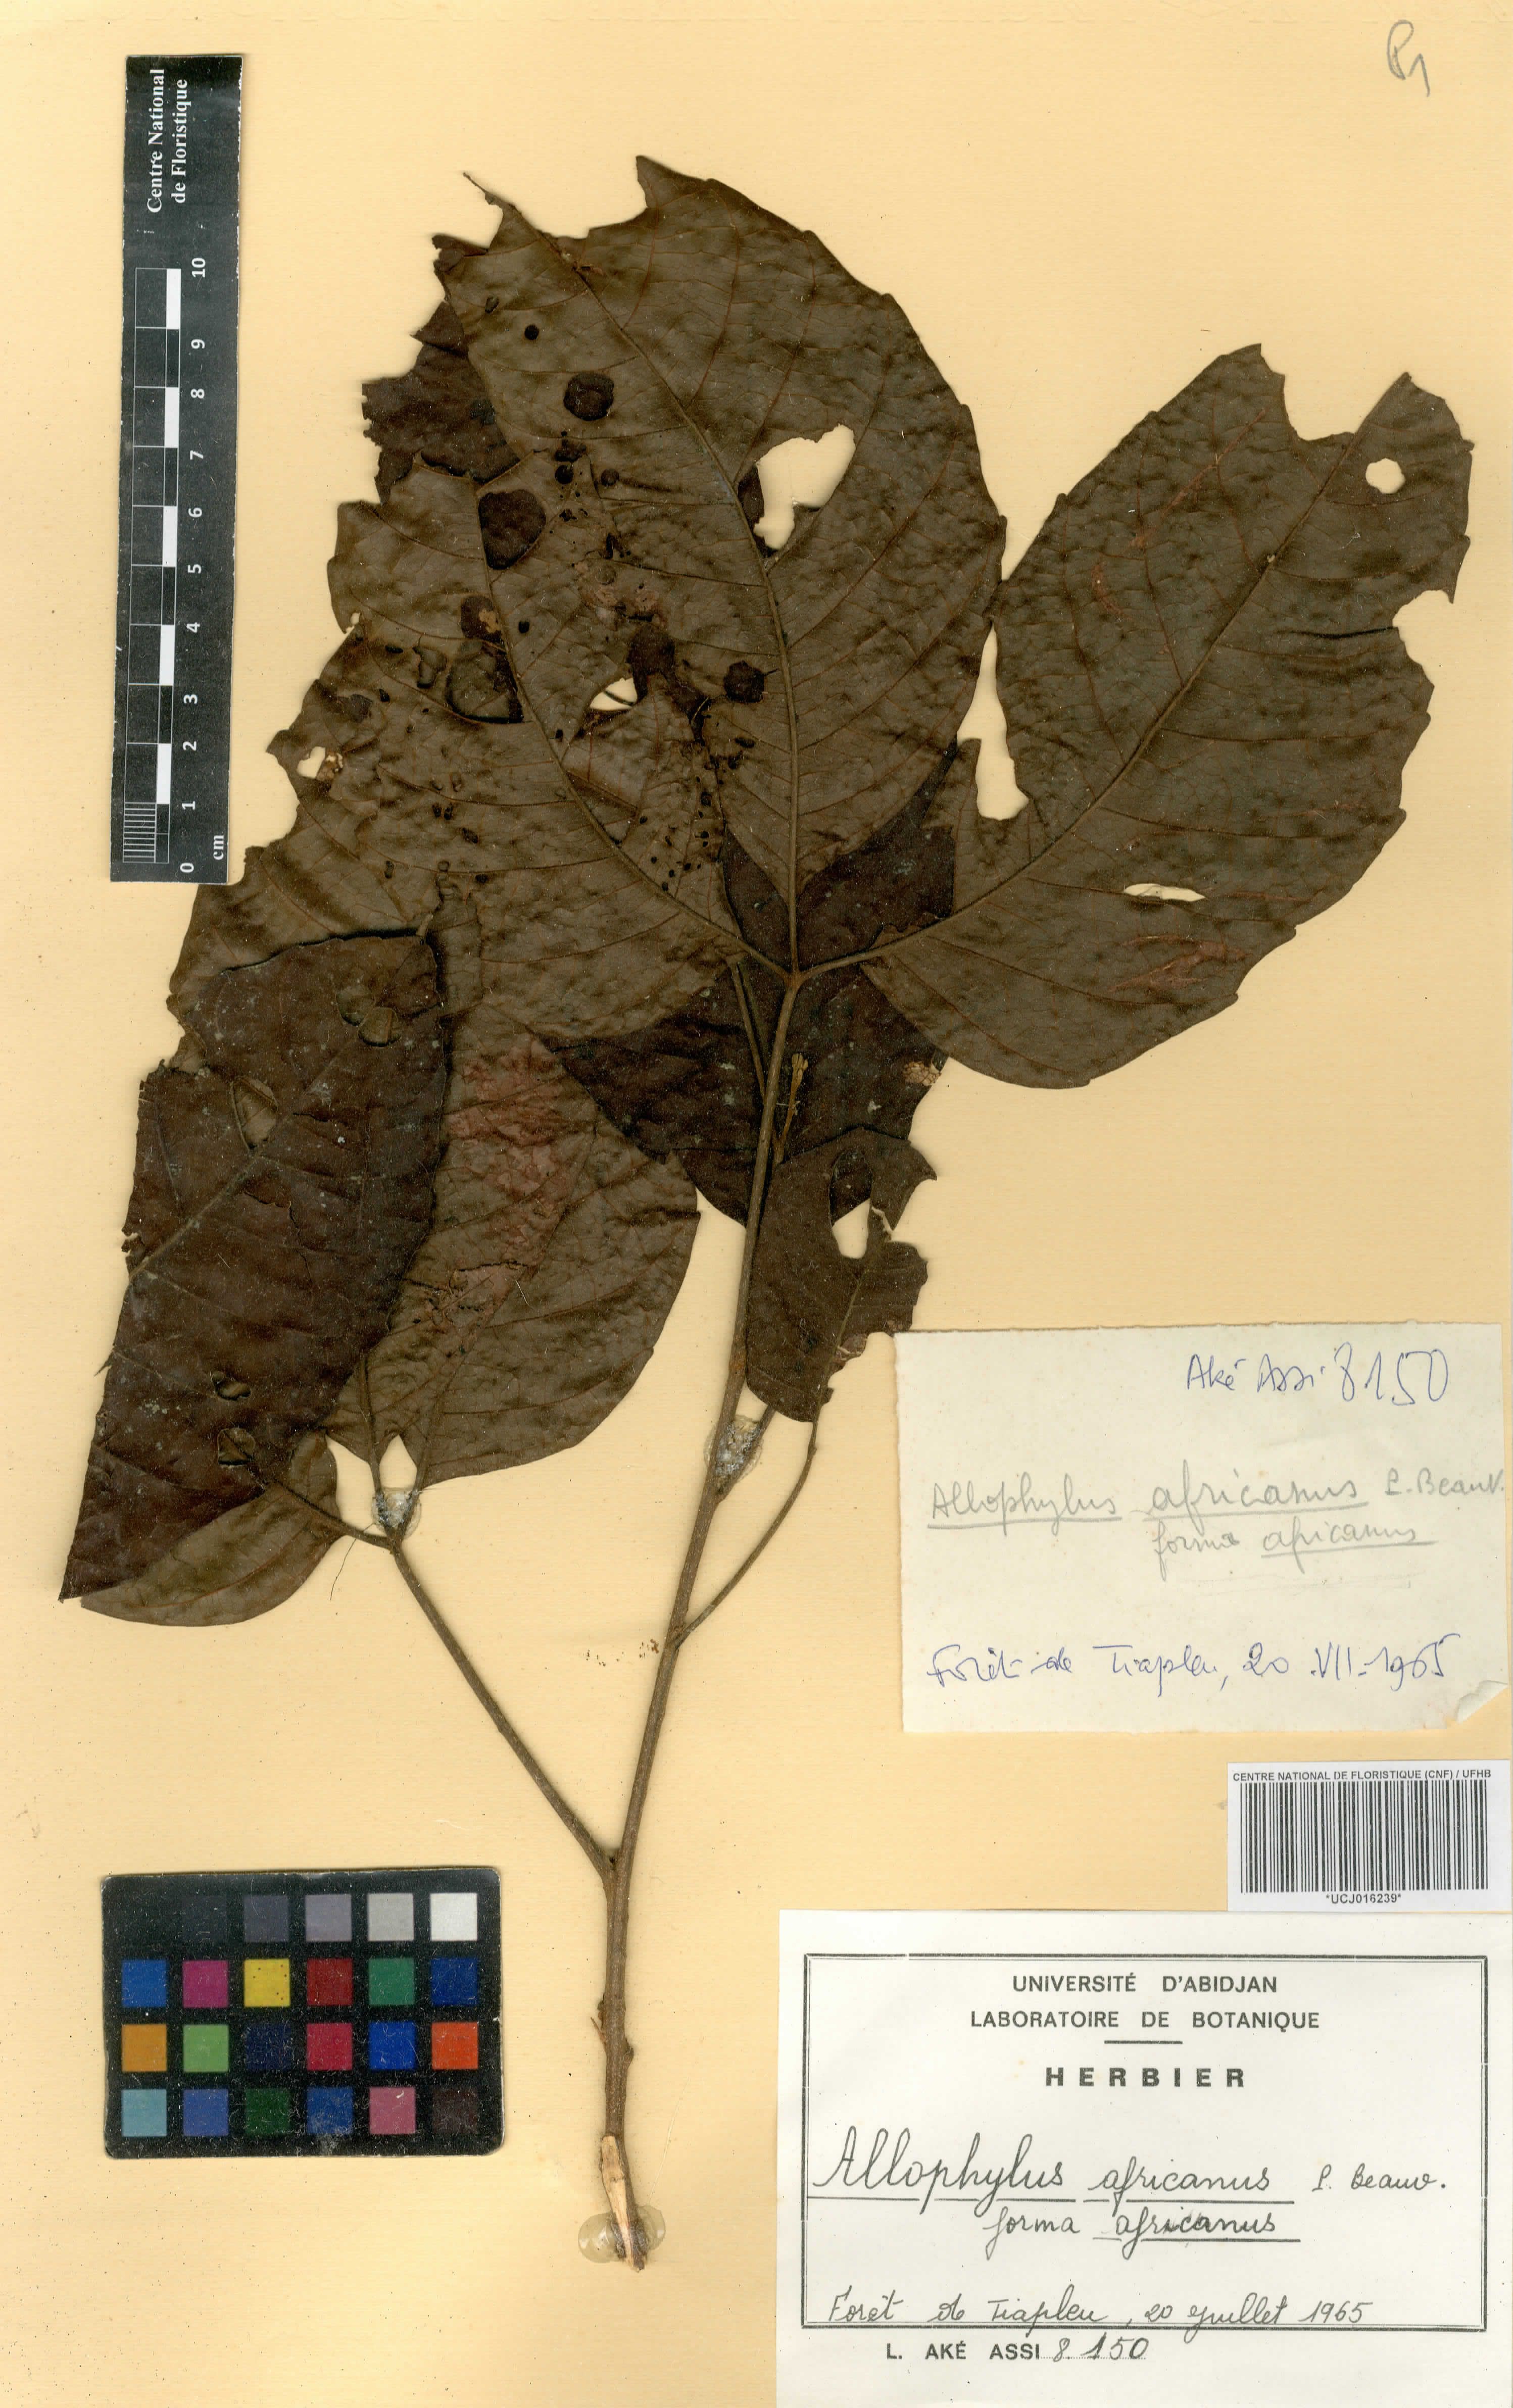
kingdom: Plantae
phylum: Tracheophyta
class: Magnoliopsida
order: Sapindales
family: Sapindaceae
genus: Allophylus
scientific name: Allophylus africanus
